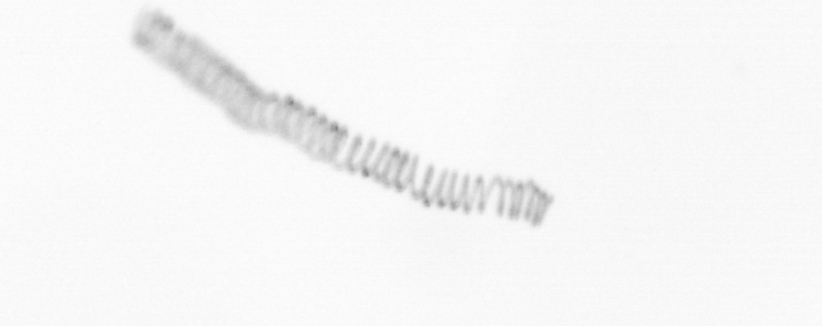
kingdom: Chromista
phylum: Ochrophyta
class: Bacillariophyceae
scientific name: Bacillariophyceae
